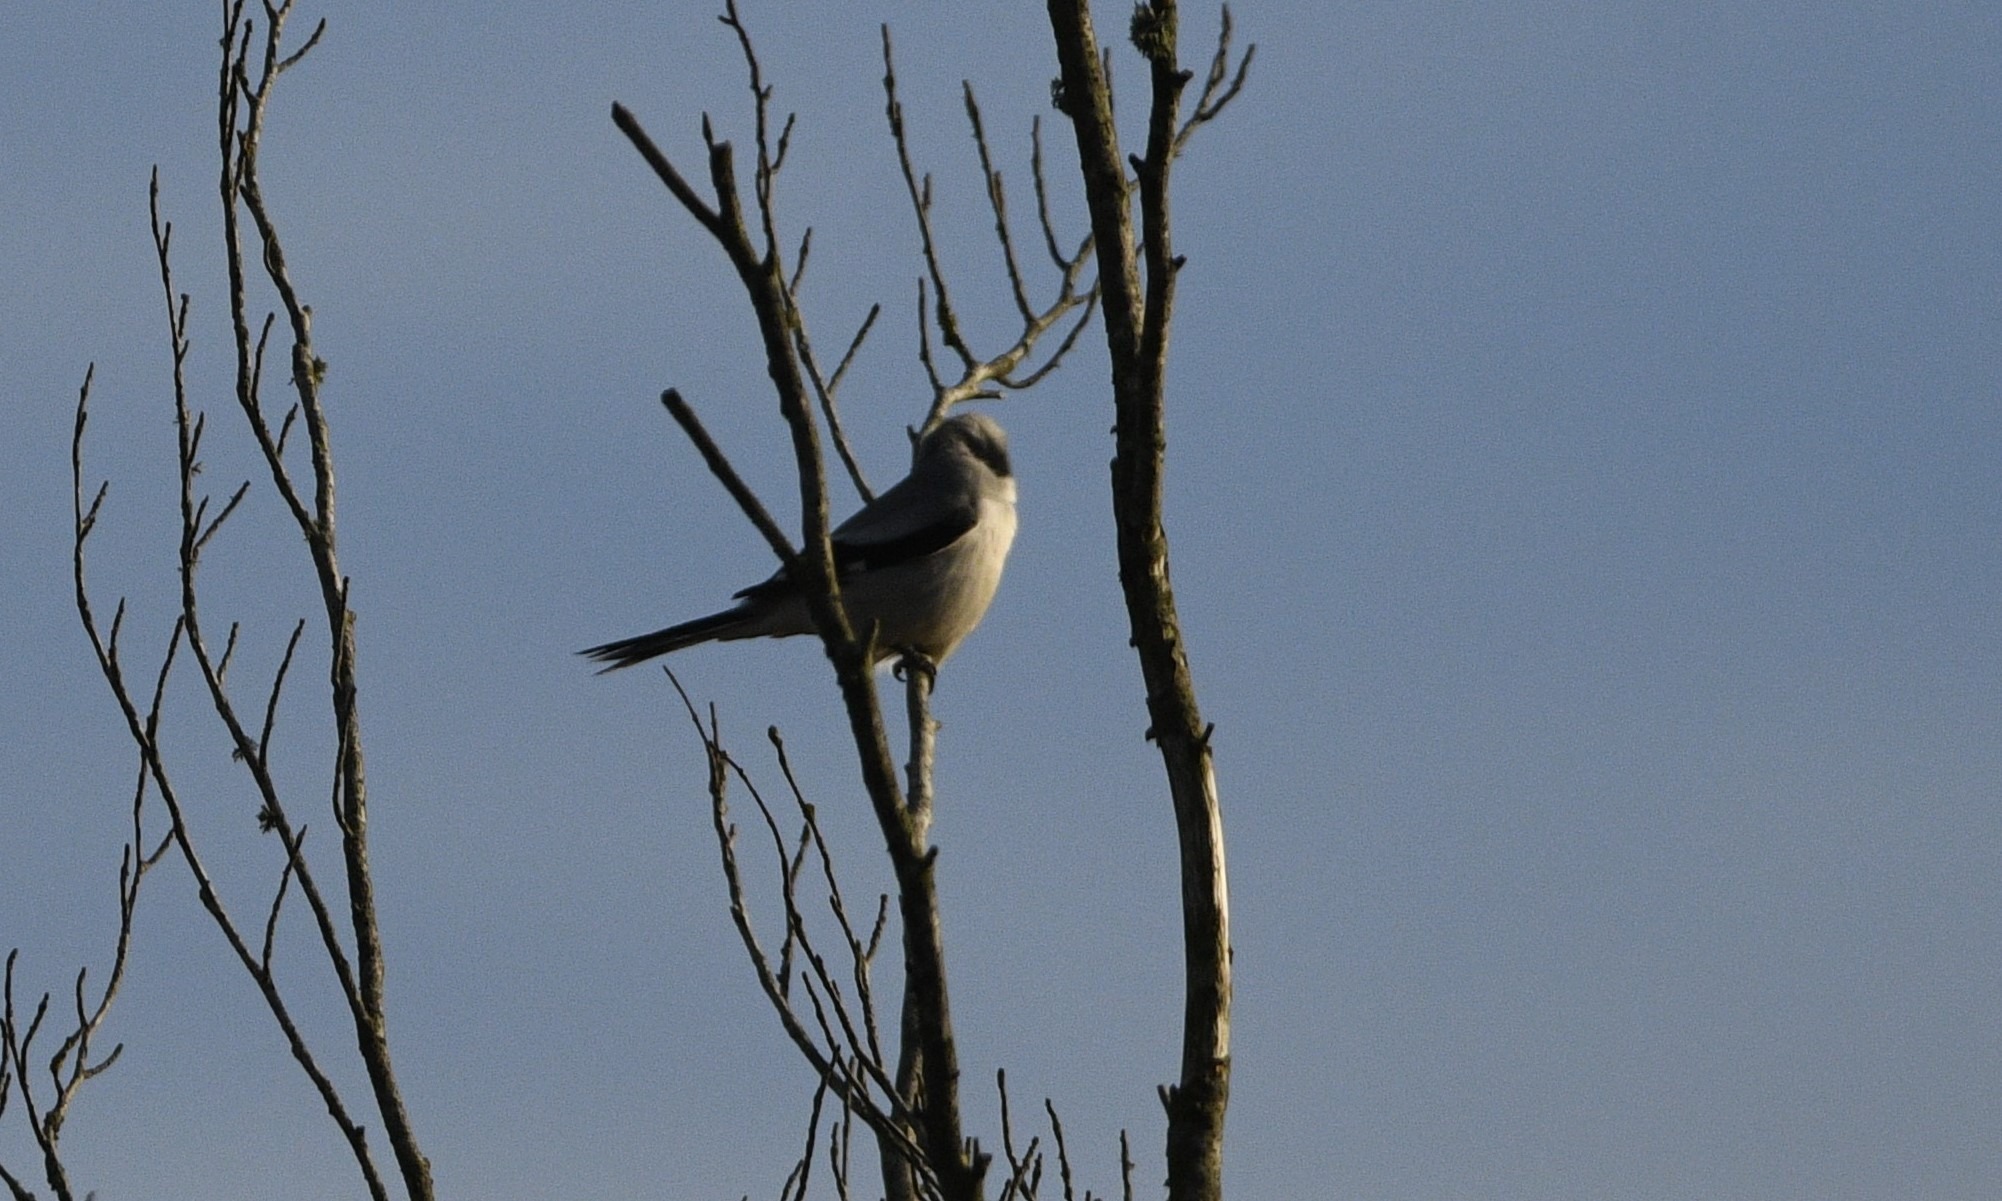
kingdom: Animalia
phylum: Chordata
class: Aves
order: Passeriformes
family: Laniidae
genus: Lanius
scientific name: Lanius excubitor
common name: Stor tornskade
